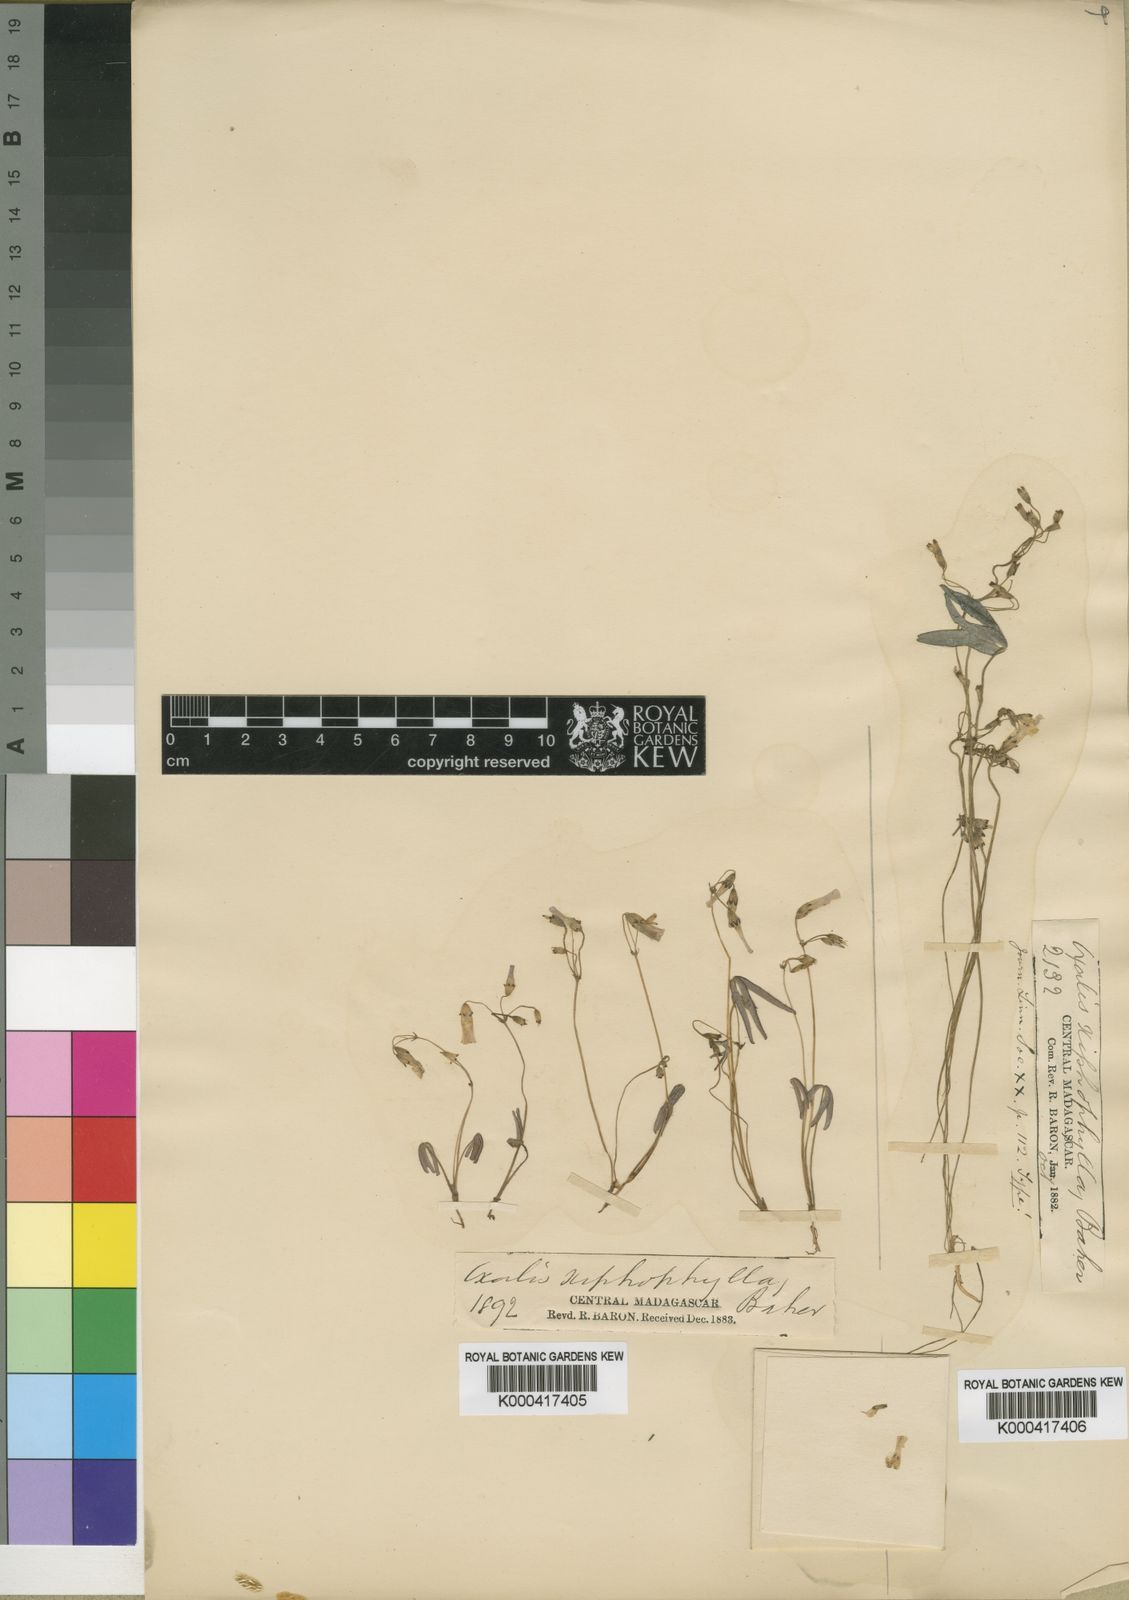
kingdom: Plantae
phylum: Tracheophyta
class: Magnoliopsida
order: Oxalidales
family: Oxalidaceae
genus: Oxalis
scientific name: Oxalis xiphophylla
